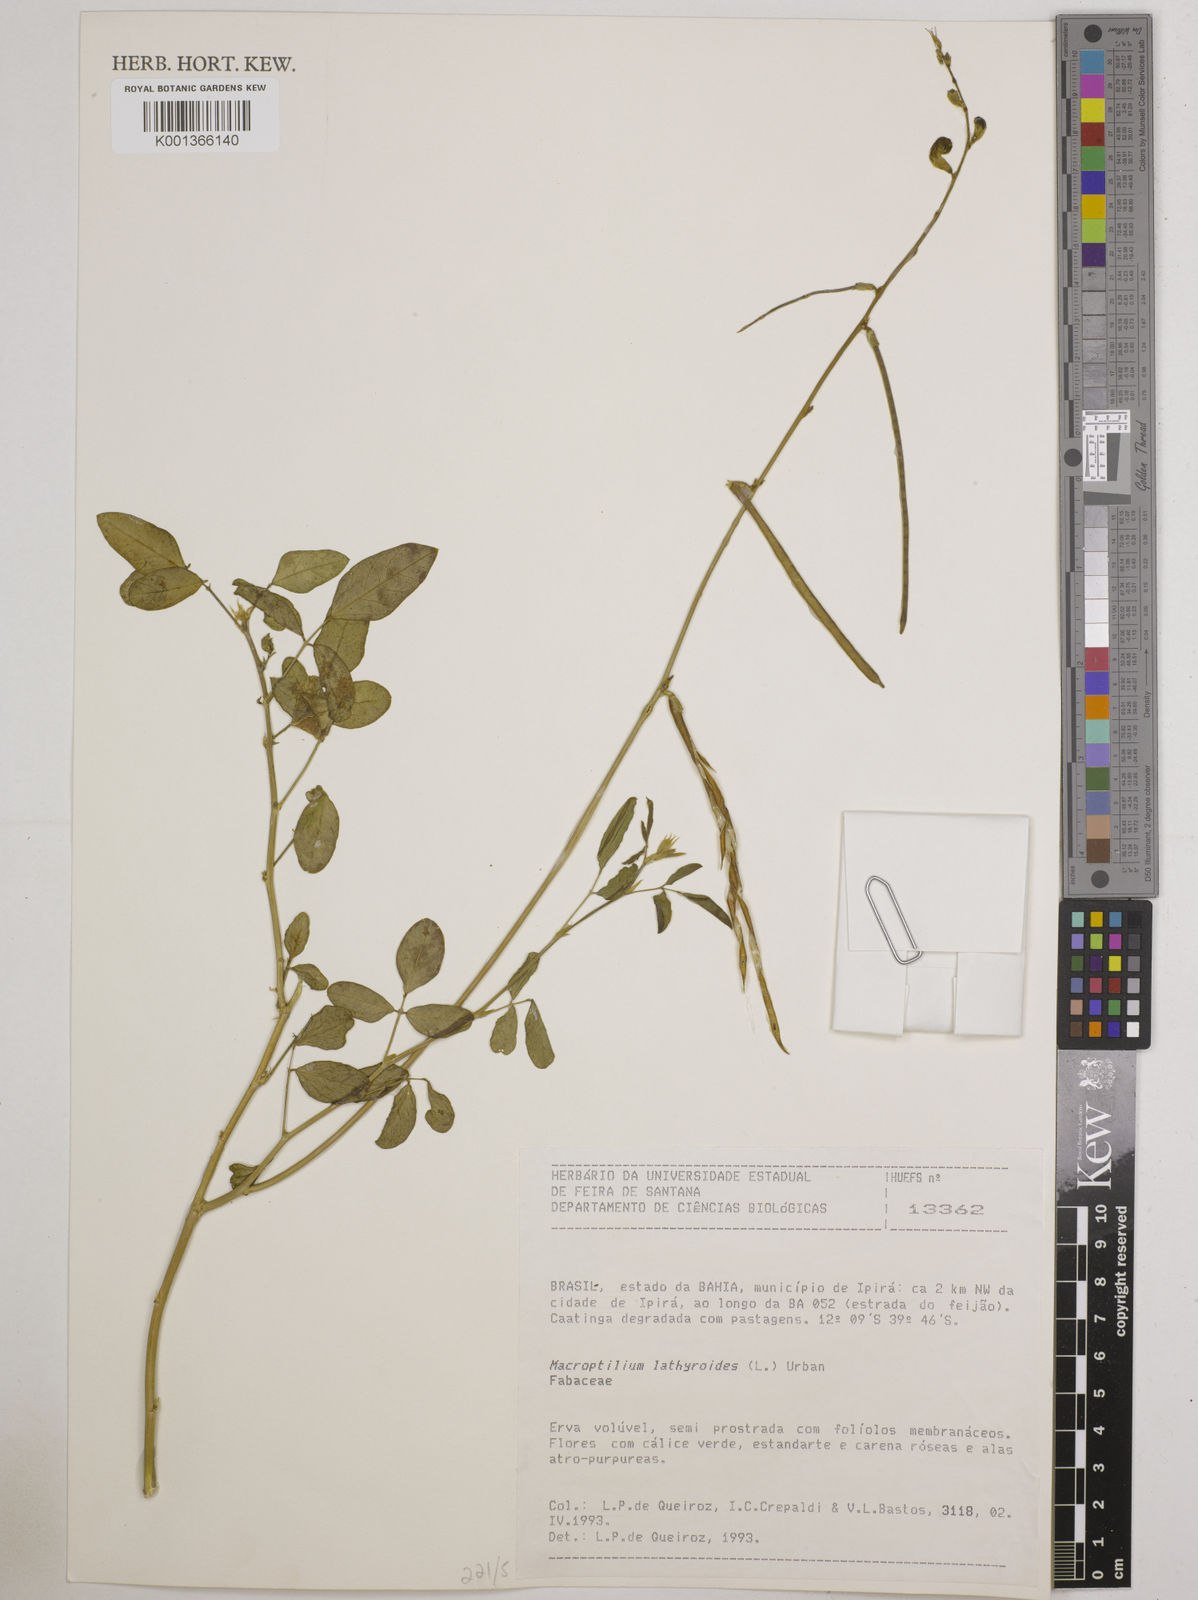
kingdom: Plantae
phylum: Tracheophyta
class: Magnoliopsida
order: Fabales
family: Fabaceae
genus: Macroptilium
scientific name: Macroptilium lathyroides
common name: Wild bushbean
